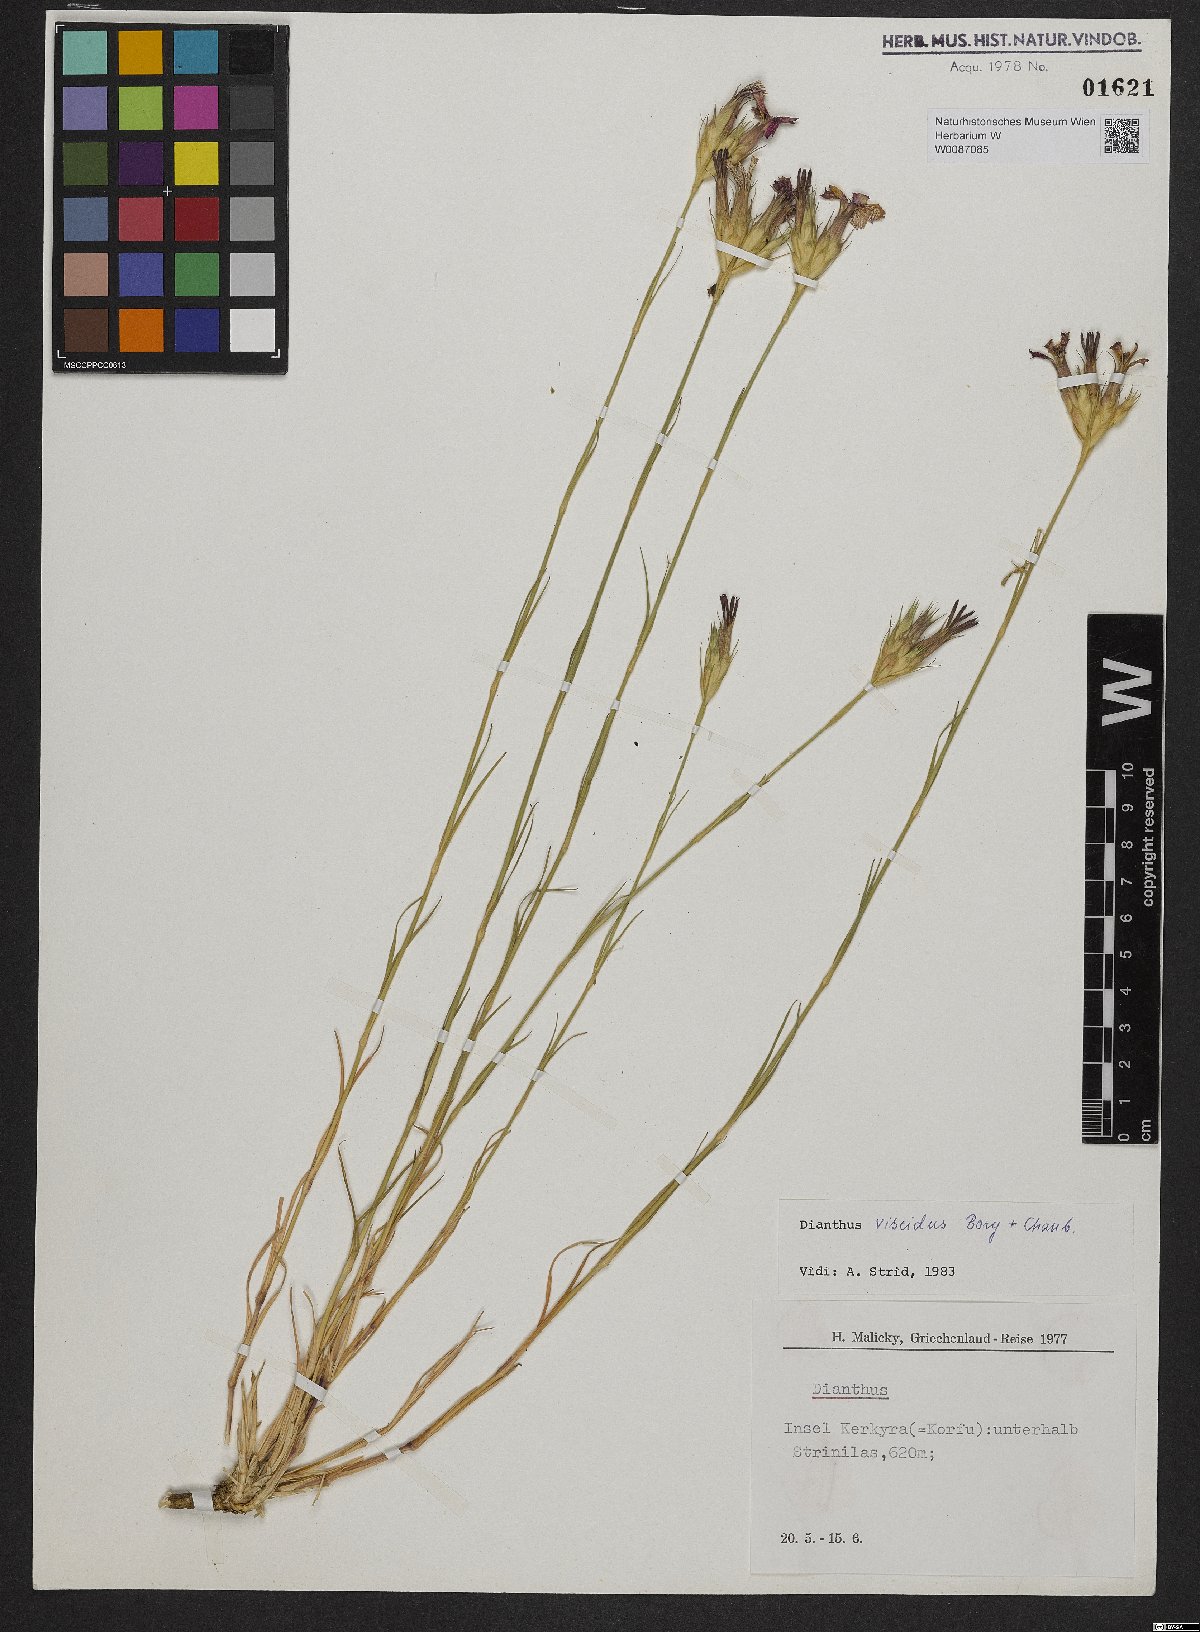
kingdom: Plantae
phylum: Tracheophyta
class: Magnoliopsida
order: Caryophyllales
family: Caryophyllaceae
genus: Dianthus
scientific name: Dianthus viscidus
